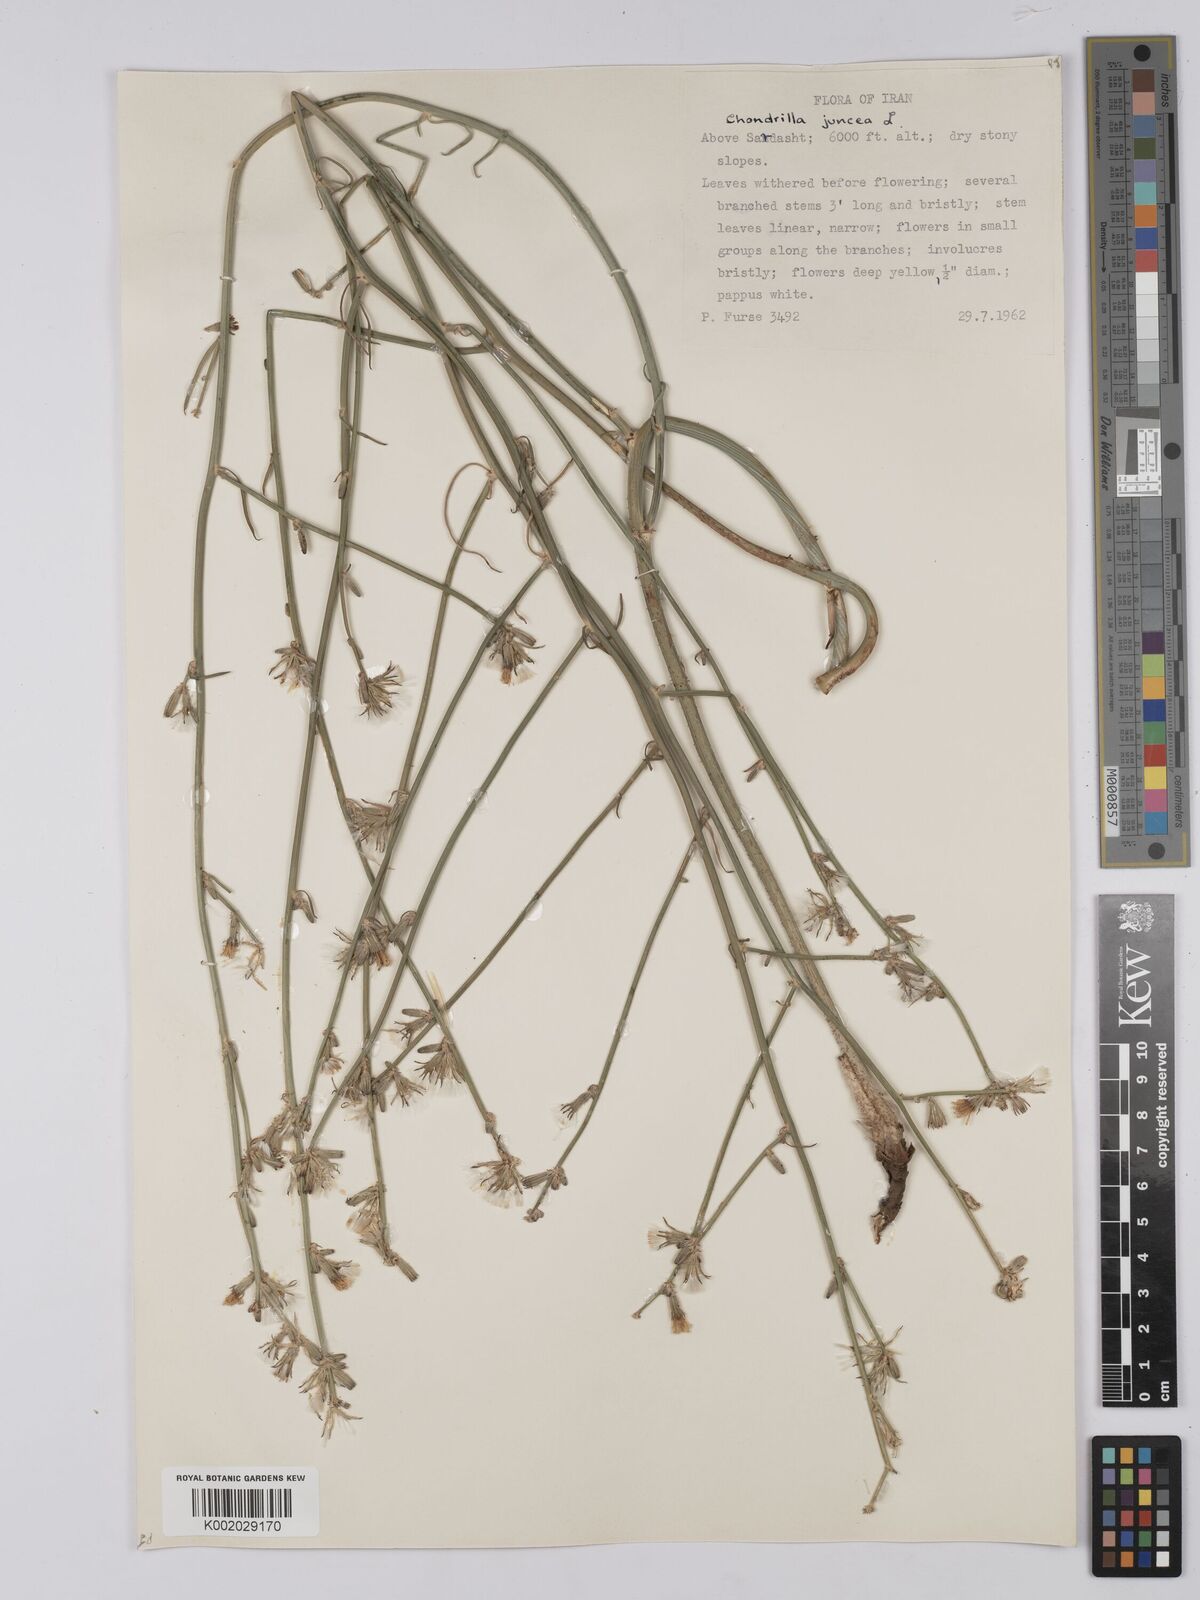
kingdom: Plantae
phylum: Tracheophyta
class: Magnoliopsida
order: Asterales
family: Asteraceae
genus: Chondrilla
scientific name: Chondrilla juncea
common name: Skeleton weed
